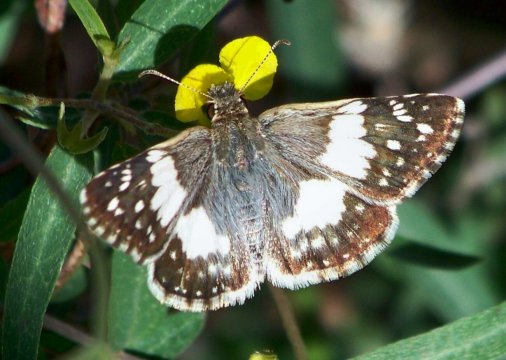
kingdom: Animalia
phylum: Arthropoda
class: Insecta
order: Lepidoptera
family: Hesperiidae
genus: Heliopyrgus
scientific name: Heliopyrgus domicella
